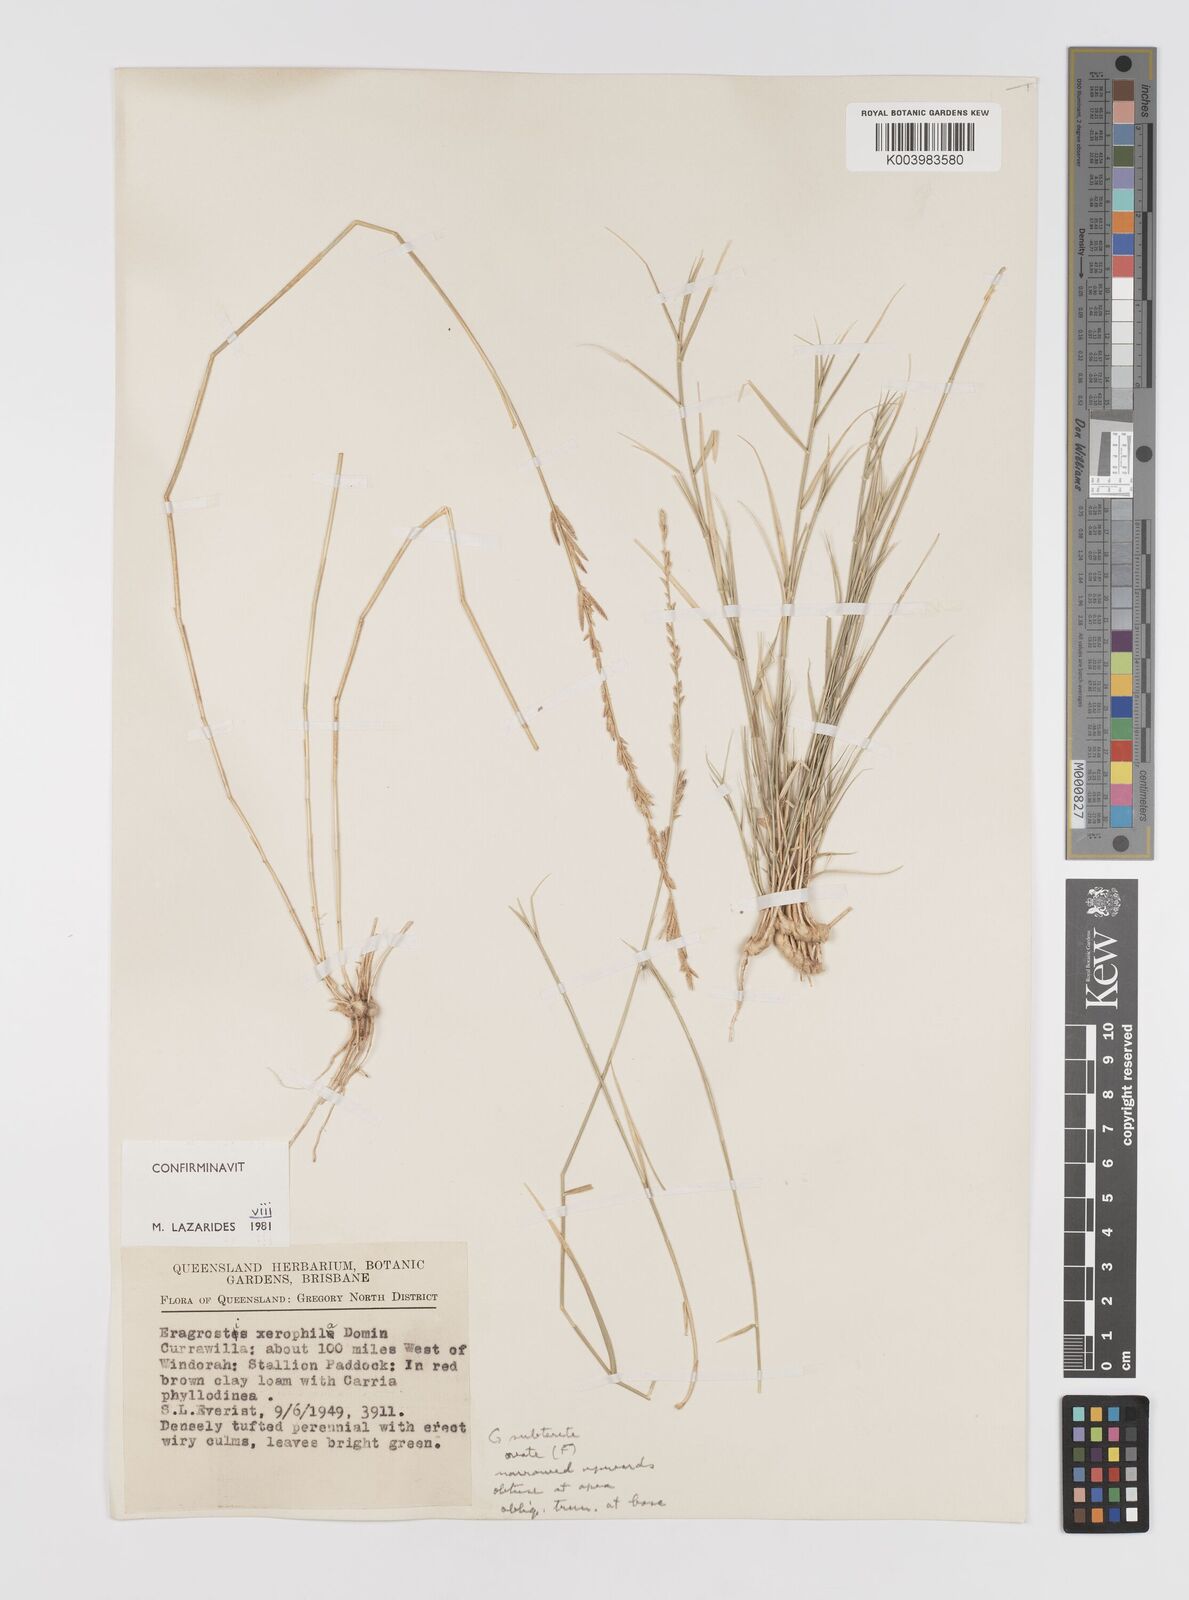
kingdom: Plantae
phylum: Tracheophyta
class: Liliopsida
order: Poales
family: Poaceae
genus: Eragrostis
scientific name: Eragrostis xerophila
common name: Wire wandarrie grass
